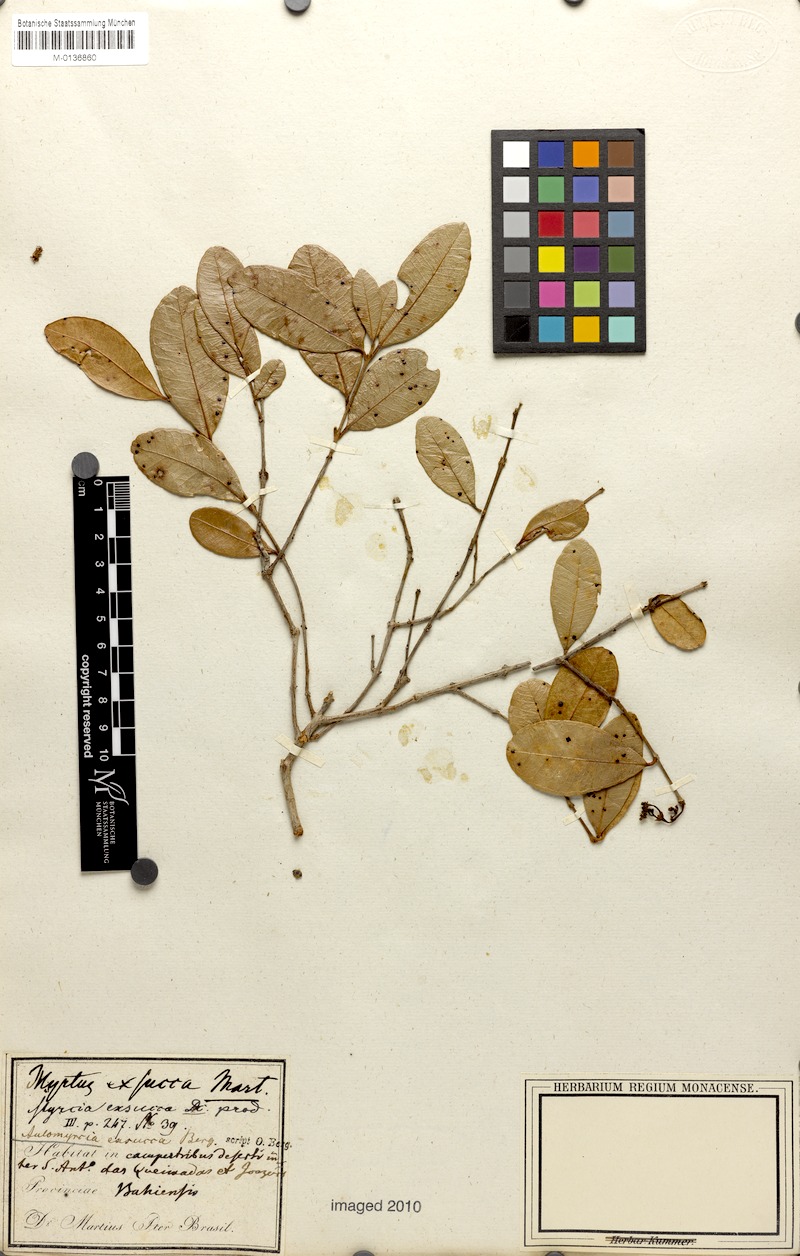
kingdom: Plantae
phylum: Tracheophyta
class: Magnoliopsida
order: Myrtales
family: Myrtaceae
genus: Myrcia
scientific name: Myrcia guianensis
